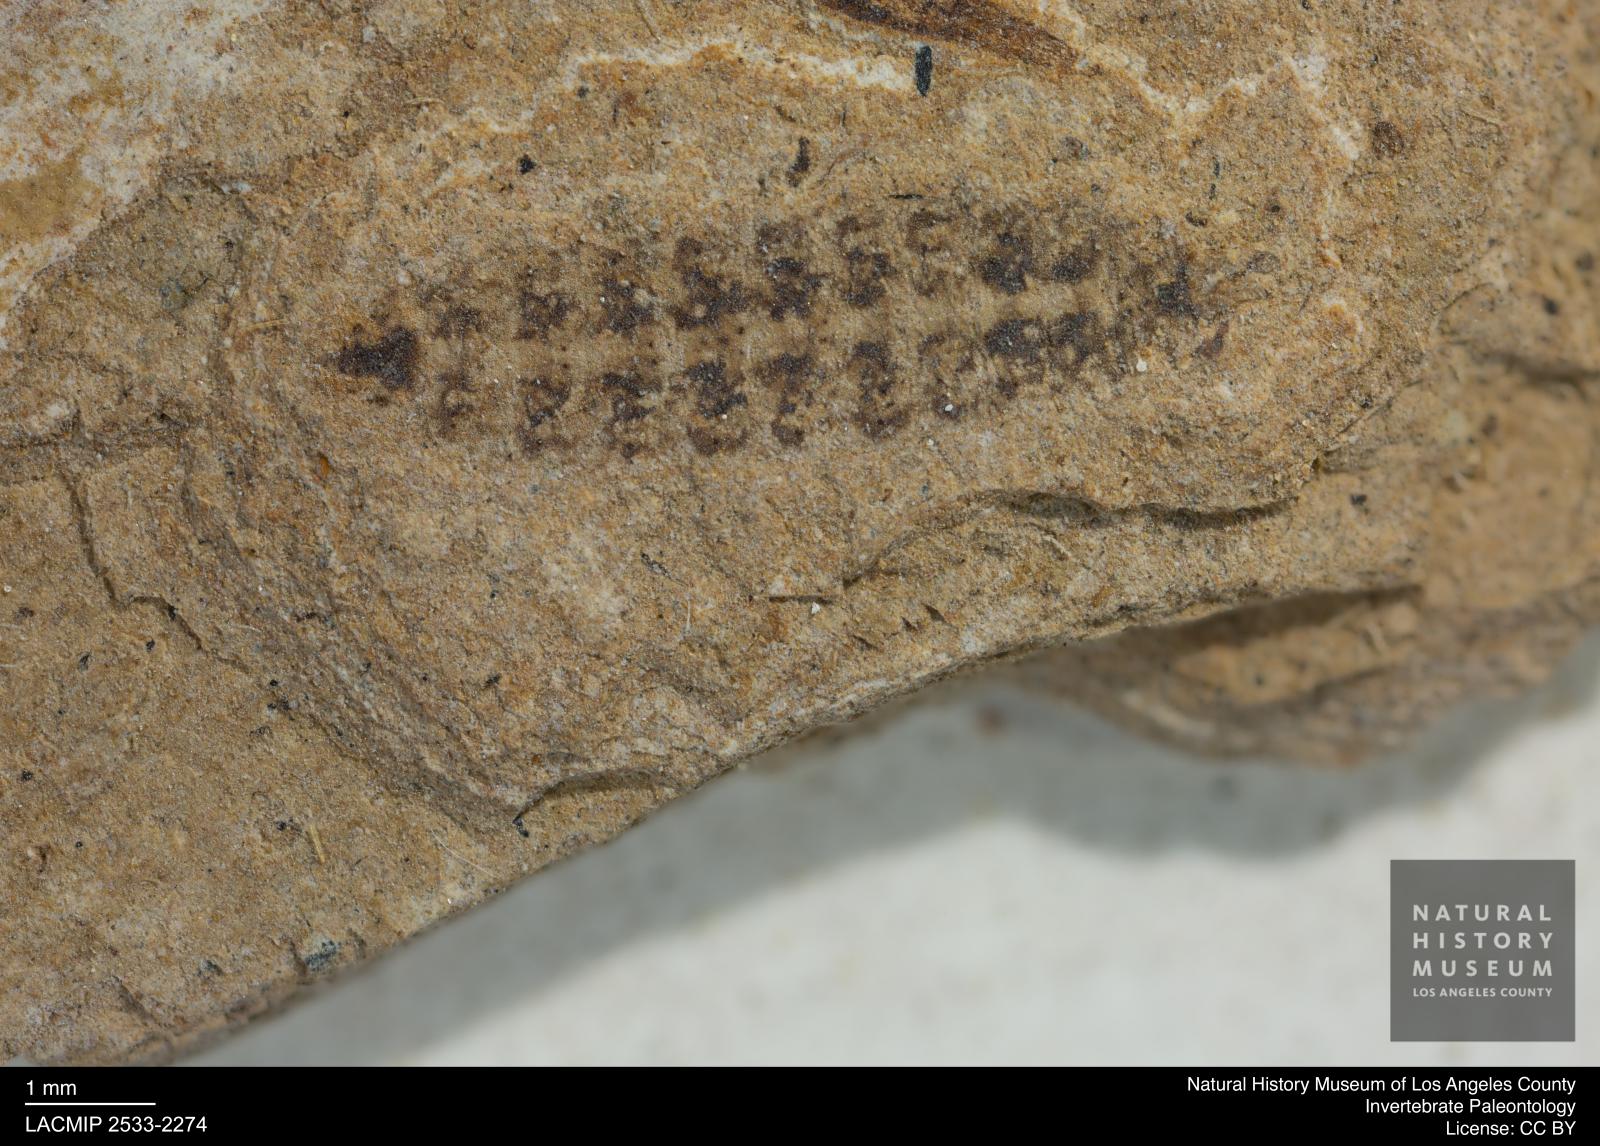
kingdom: Animalia
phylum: Arthropoda
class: Insecta
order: Diptera
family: Stratiomyidae
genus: Odontomyia
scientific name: Odontomyia
